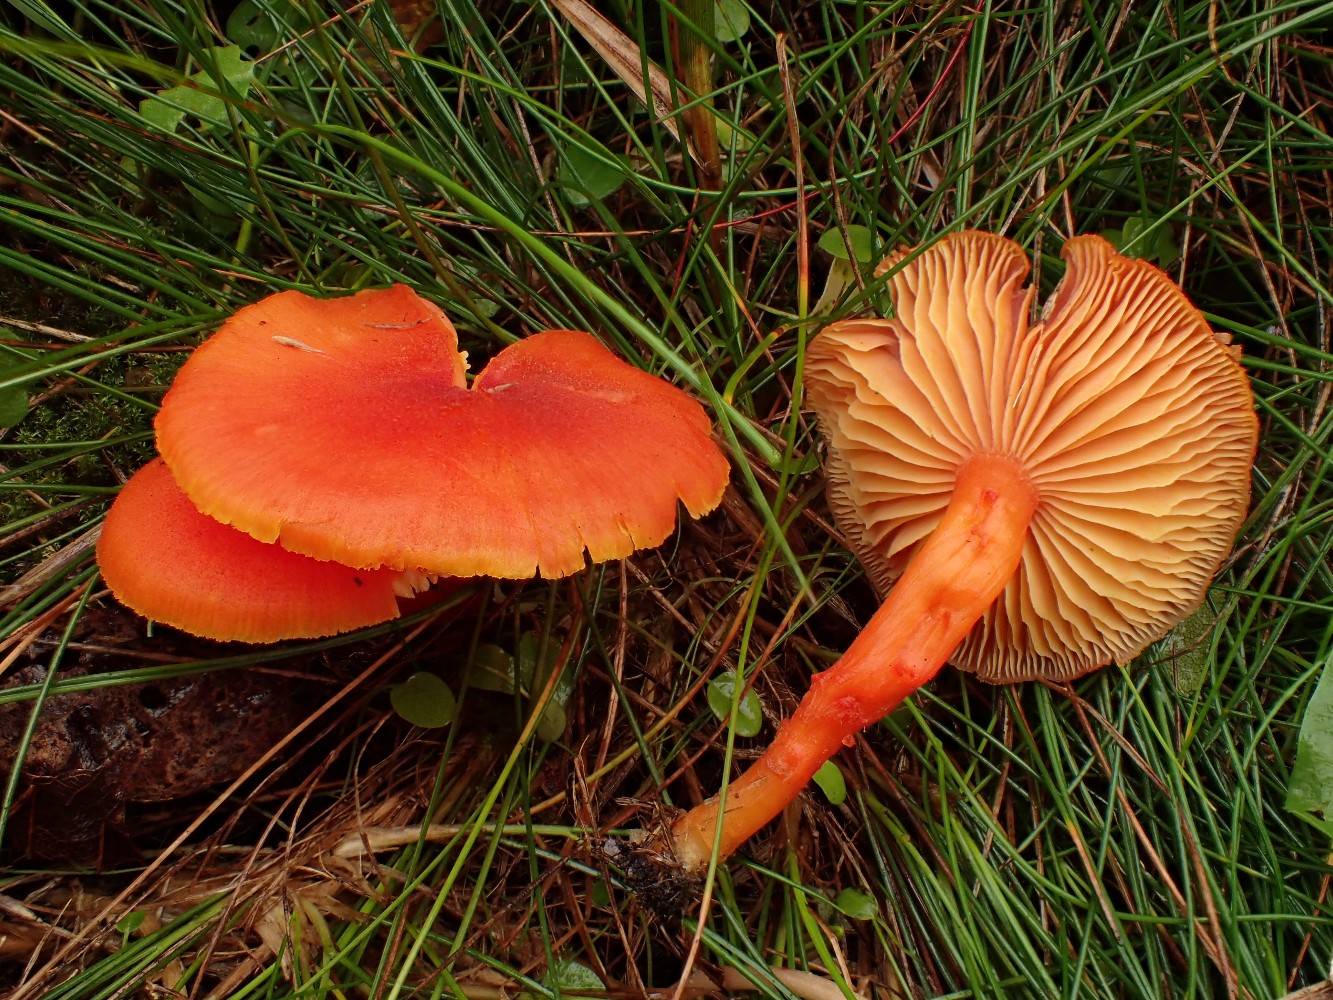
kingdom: Fungi
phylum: Basidiomycota
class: Agaricomycetes
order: Agaricales
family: Hygrophoraceae
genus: Hygrocybe
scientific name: Hygrocybe miniata
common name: mønje-vokshat
